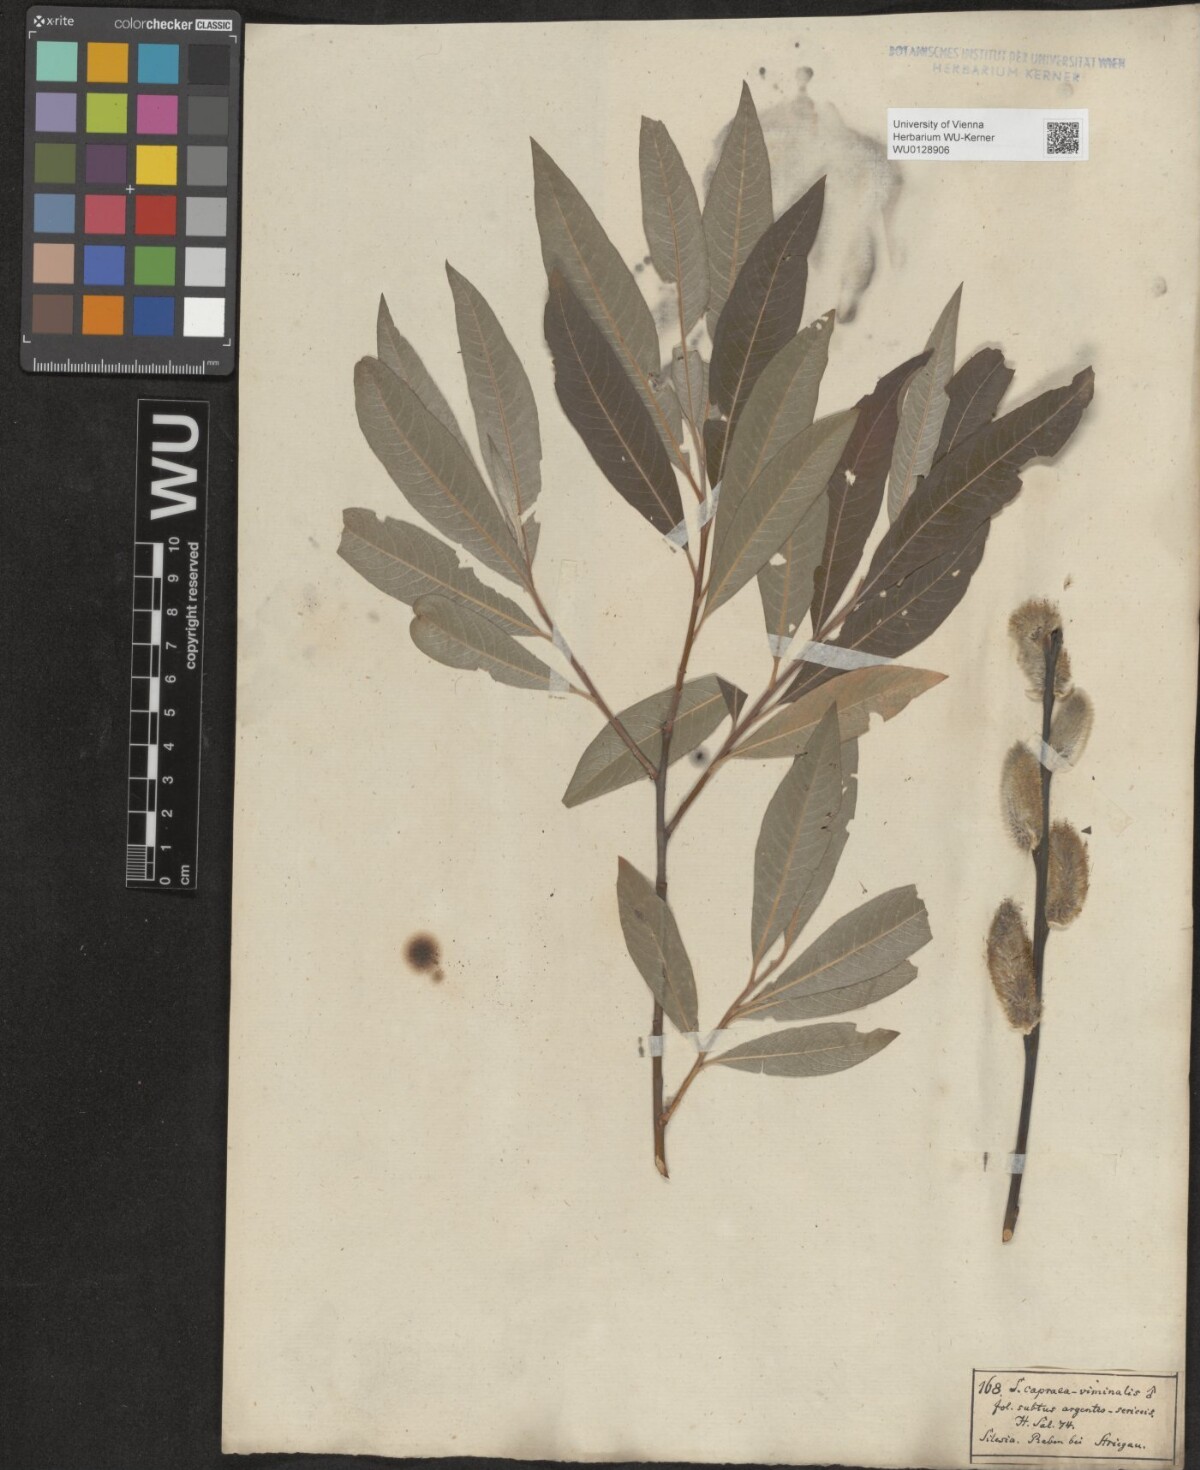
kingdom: Plantae
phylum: Tracheophyta
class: Magnoliopsida
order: Malpighiales
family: Salicaceae
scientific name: Salicaceae
